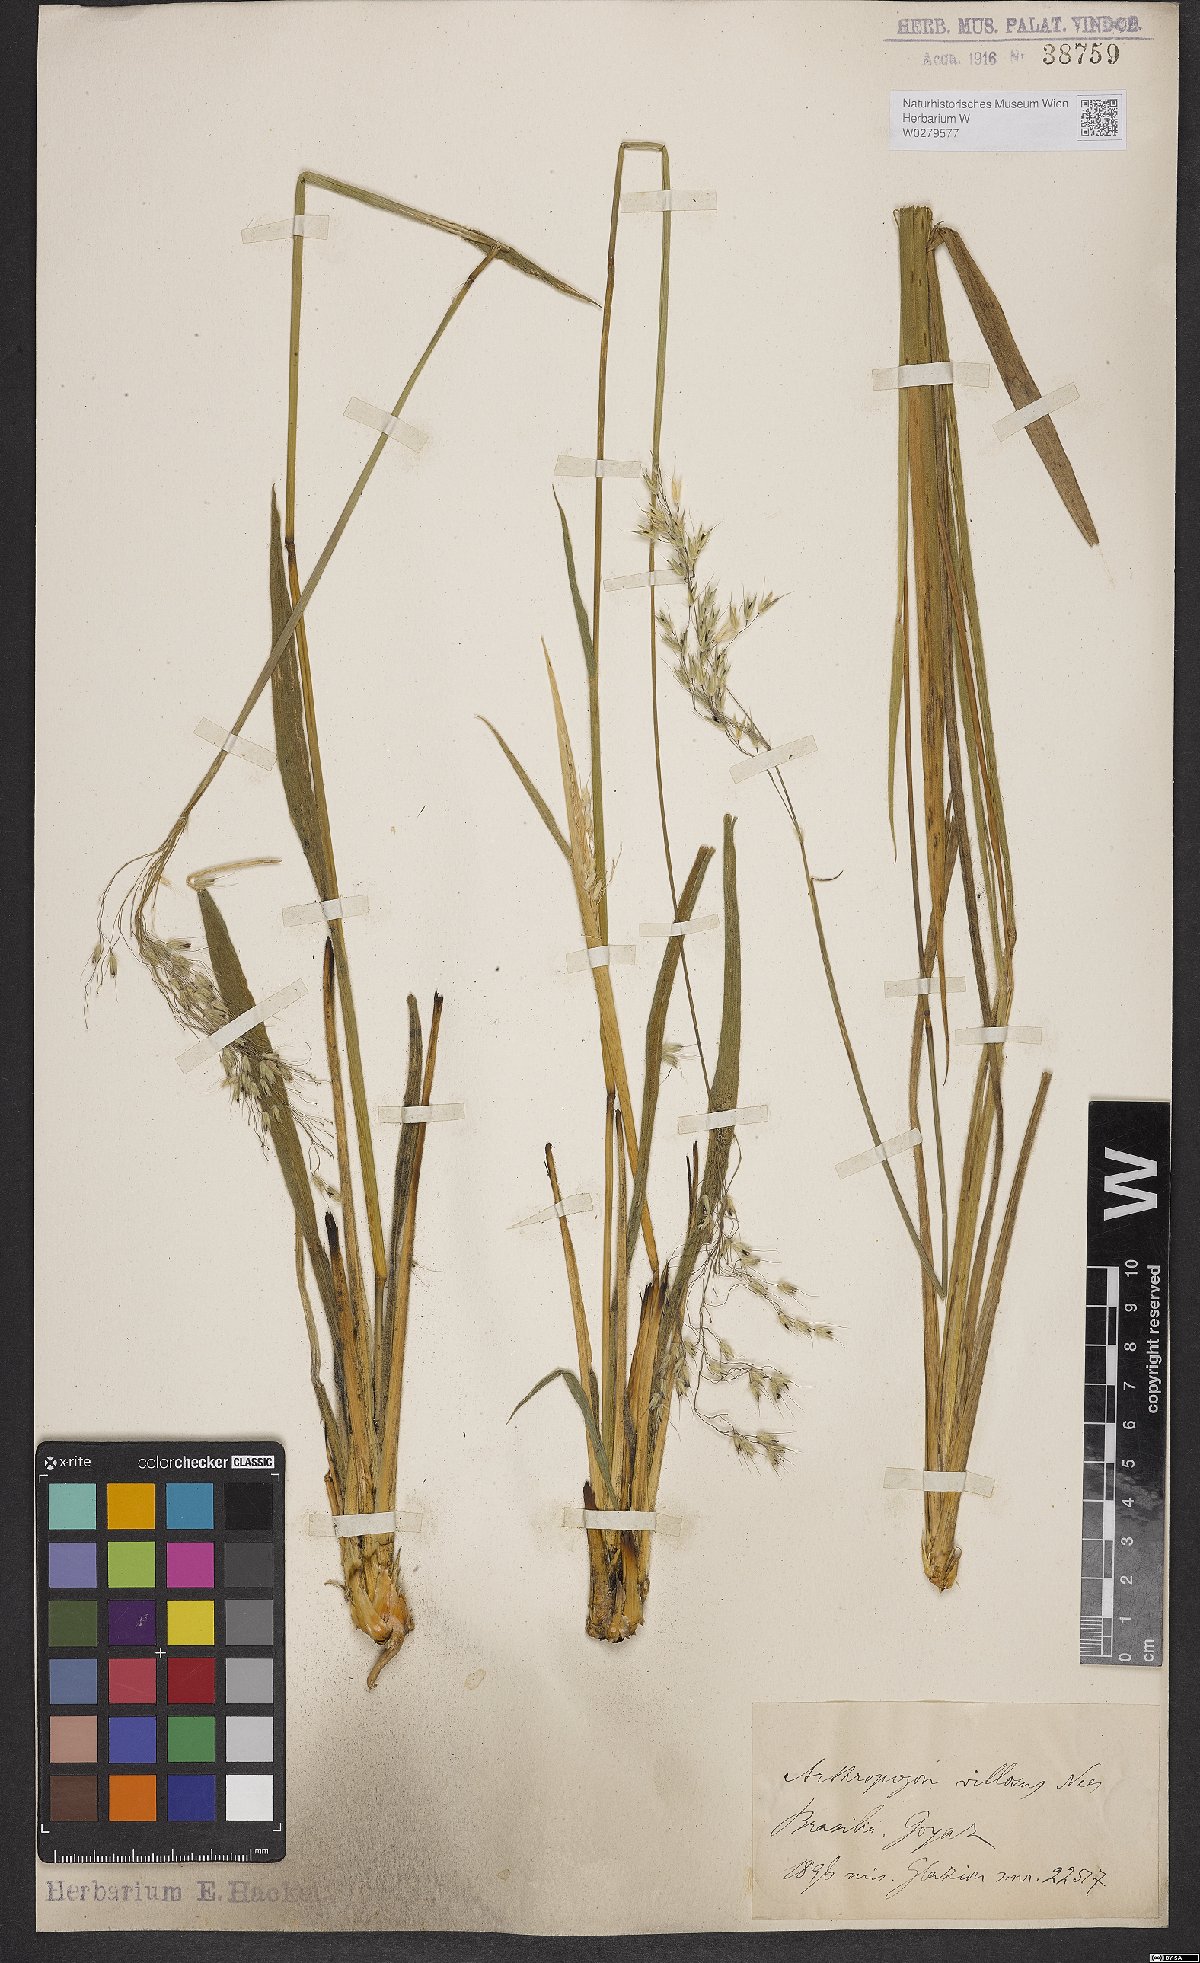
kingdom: Plantae
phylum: Tracheophyta
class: Liliopsida
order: Poales
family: Poaceae
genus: Arthropogon
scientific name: Arthropogon villosus
